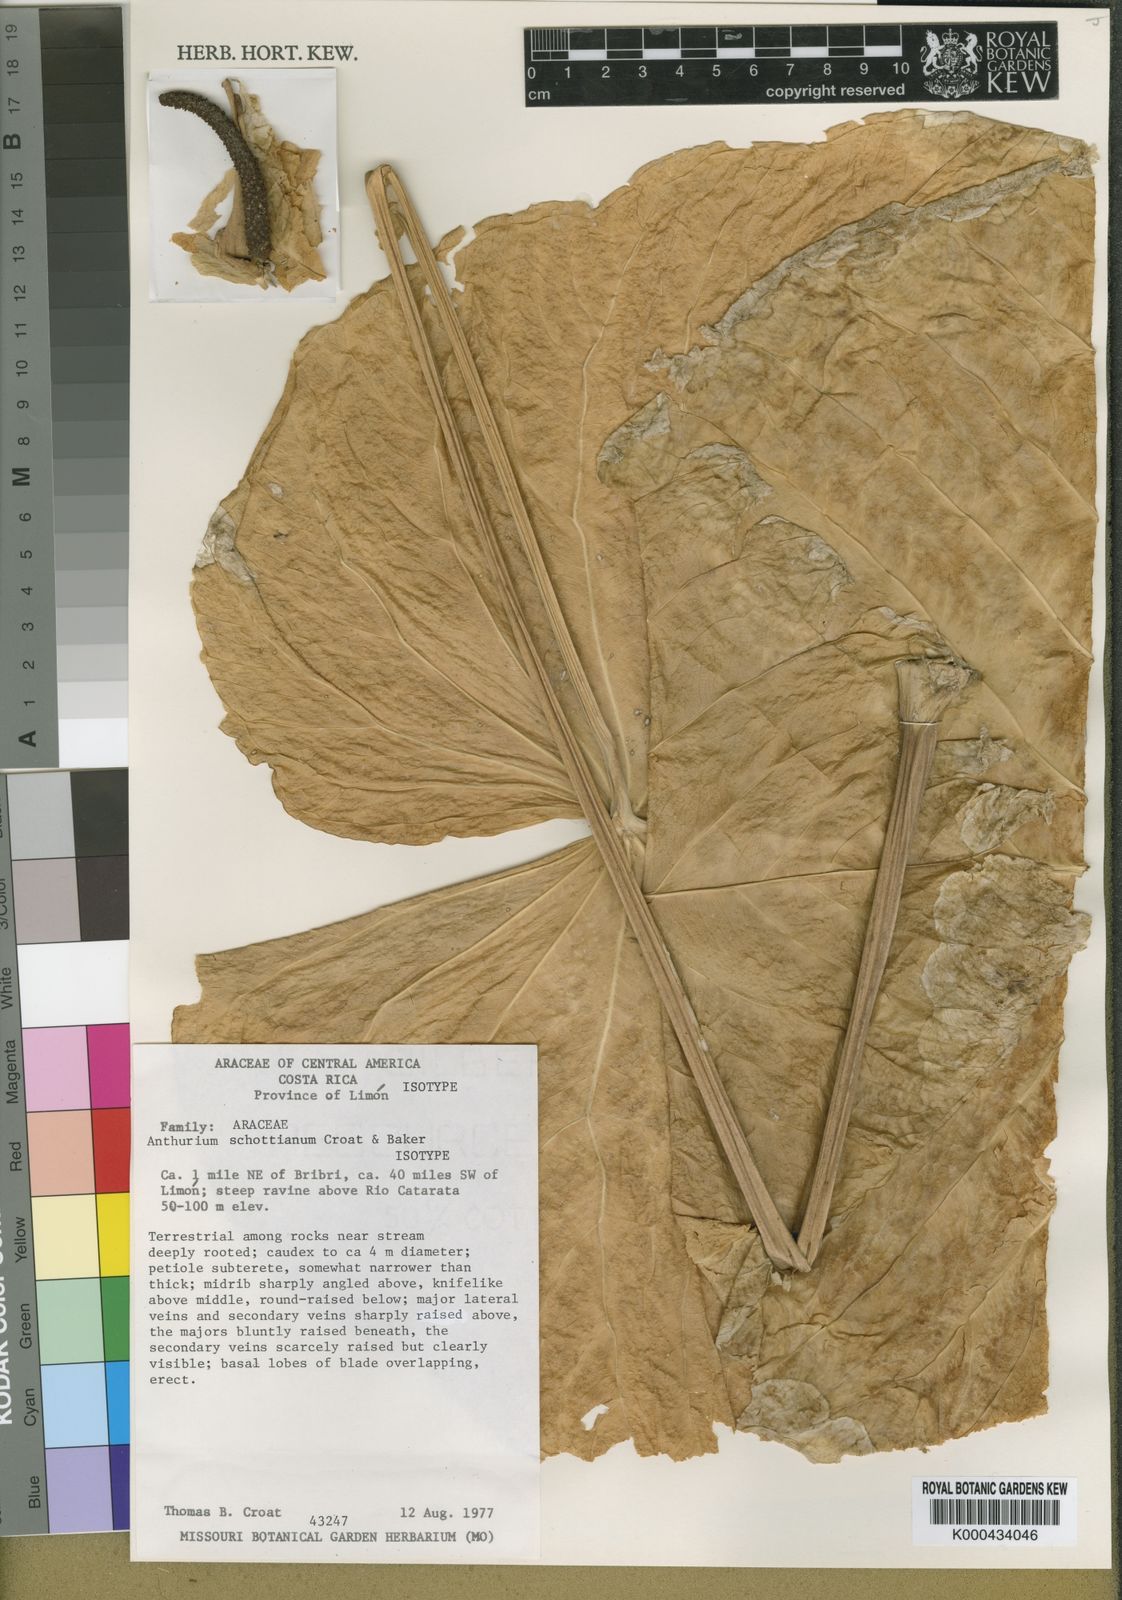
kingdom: Plantae
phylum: Tracheophyta
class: Liliopsida
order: Alismatales
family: Araceae
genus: Anthurium
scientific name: Anthurium schottianum
